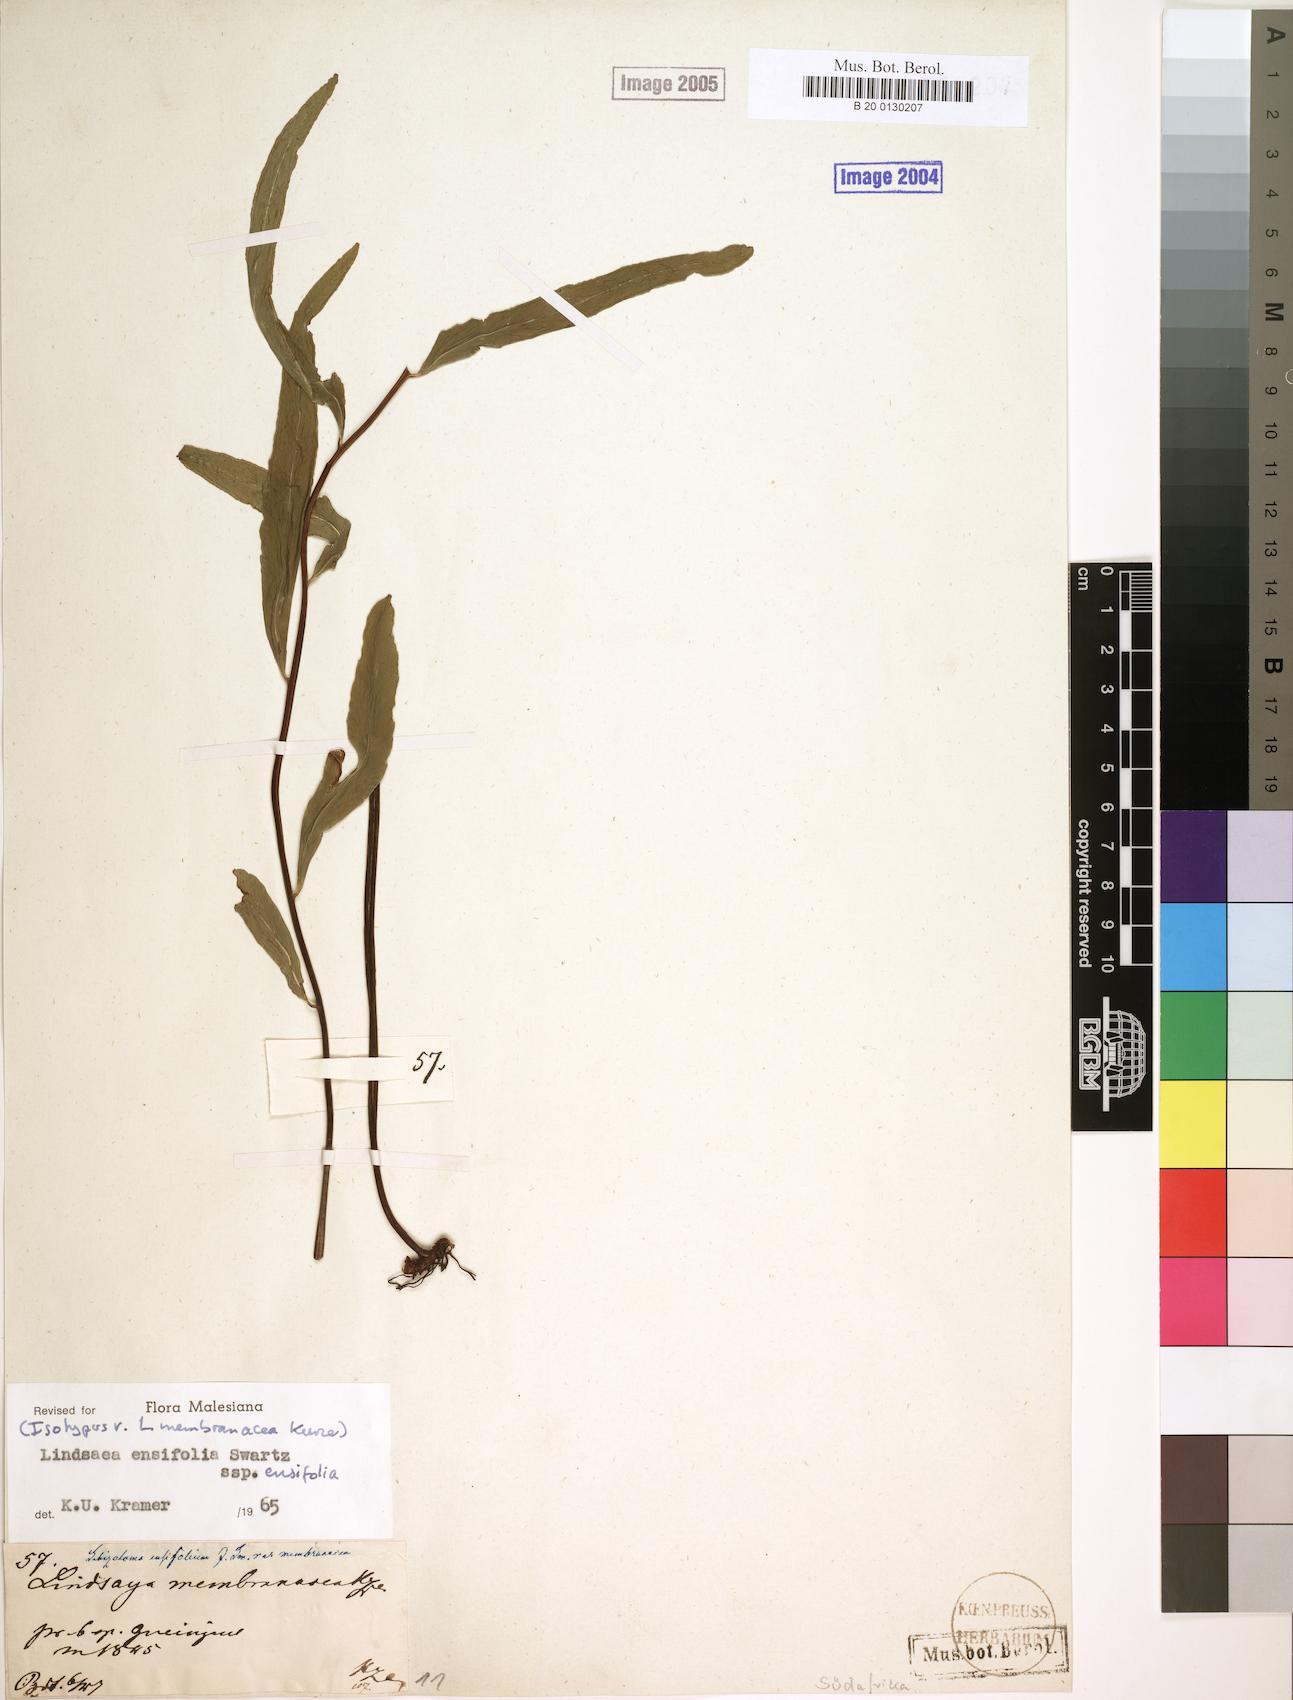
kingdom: Plantae
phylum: Tracheophyta
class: Polypodiopsida
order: Polypodiales
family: Lindsaeaceae
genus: Lindsaea
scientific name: Lindsaea ensifolia
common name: Graceful necklace fern
